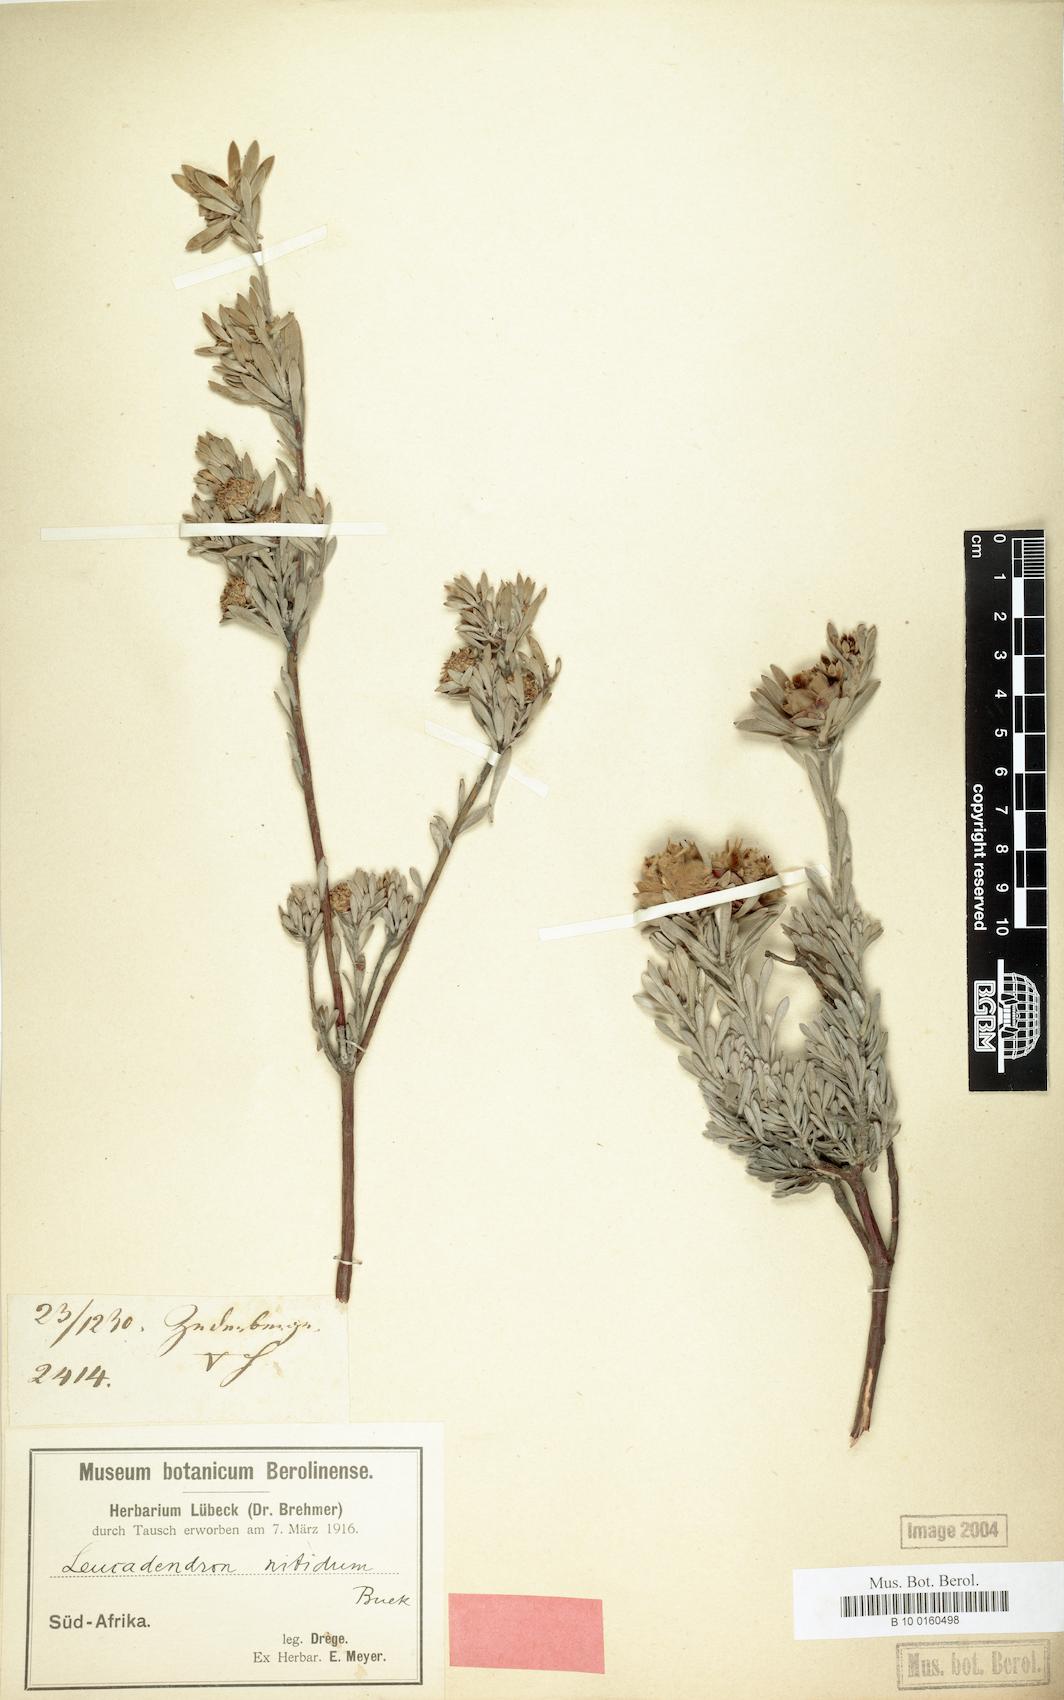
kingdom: Plantae
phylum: Tracheophyta
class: Magnoliopsida
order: Proteales
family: Proteaceae
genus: Leucadendron
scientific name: Leucadendron nitidum
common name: Bokkeveld conebush
